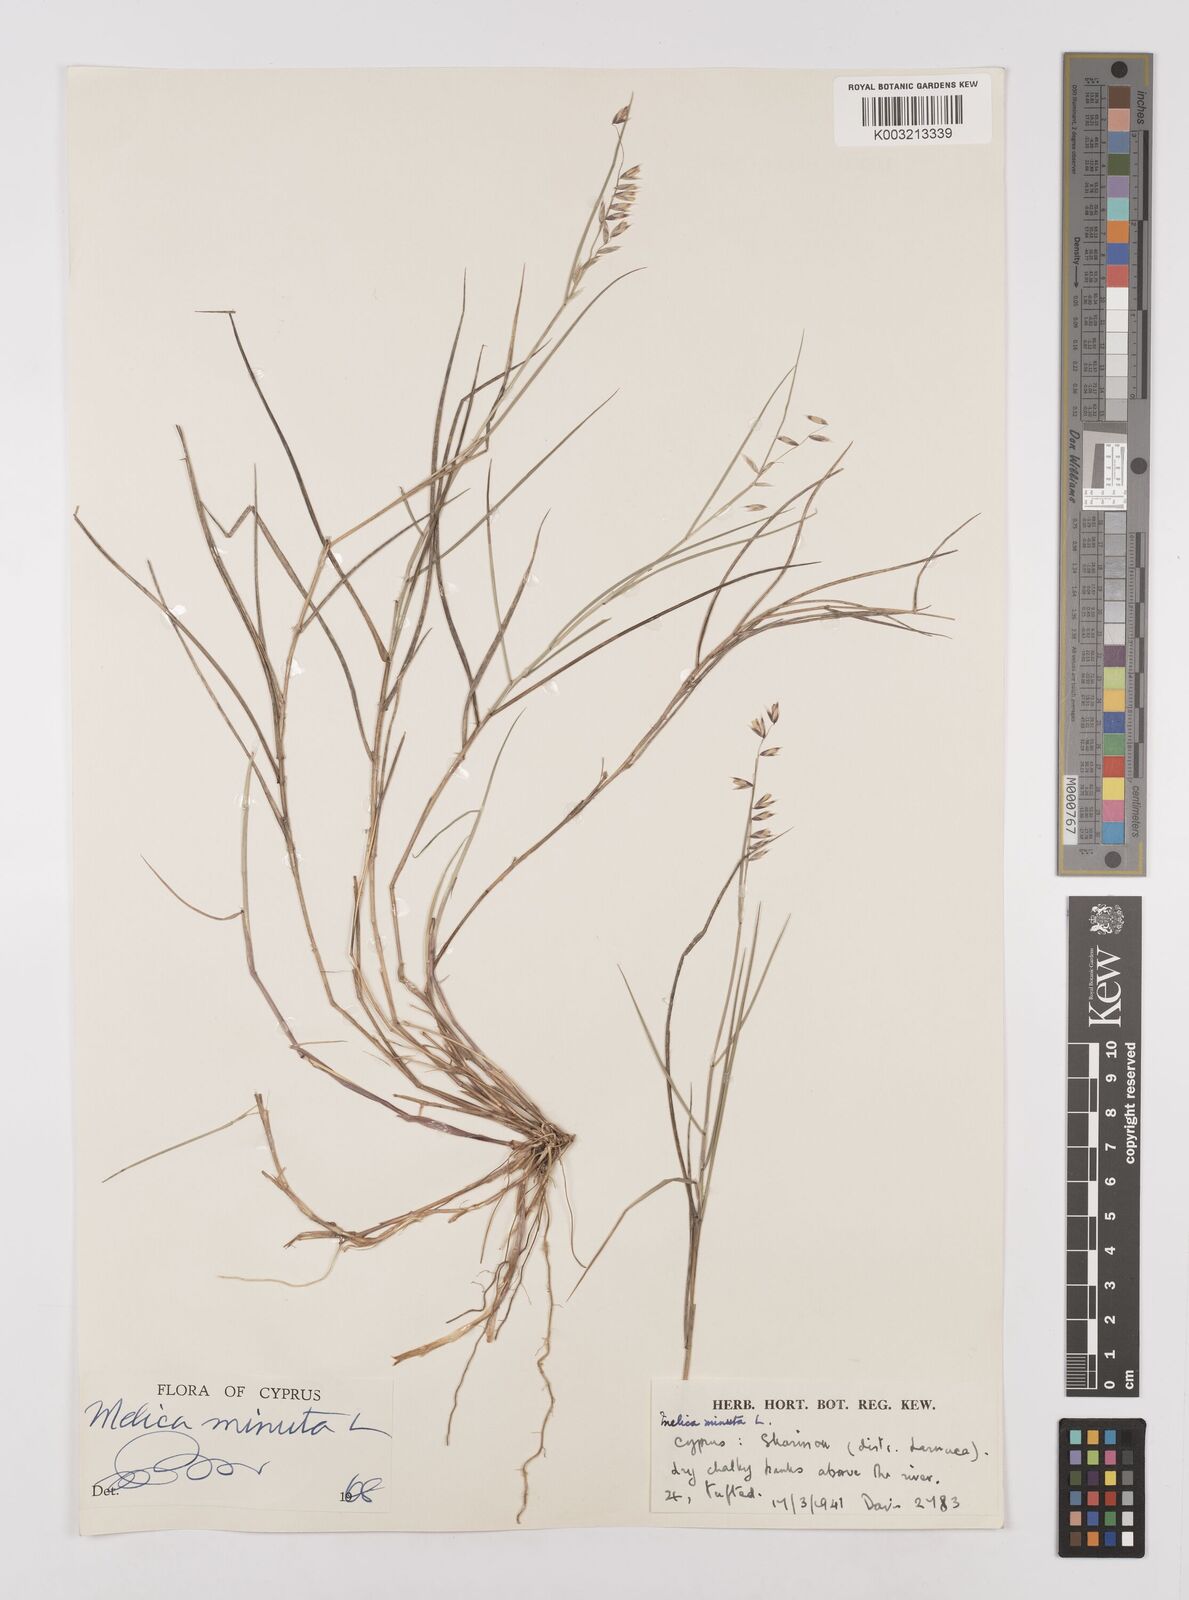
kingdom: Plantae
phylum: Tracheophyta
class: Liliopsida
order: Poales
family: Poaceae
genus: Melica
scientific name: Melica minuta
